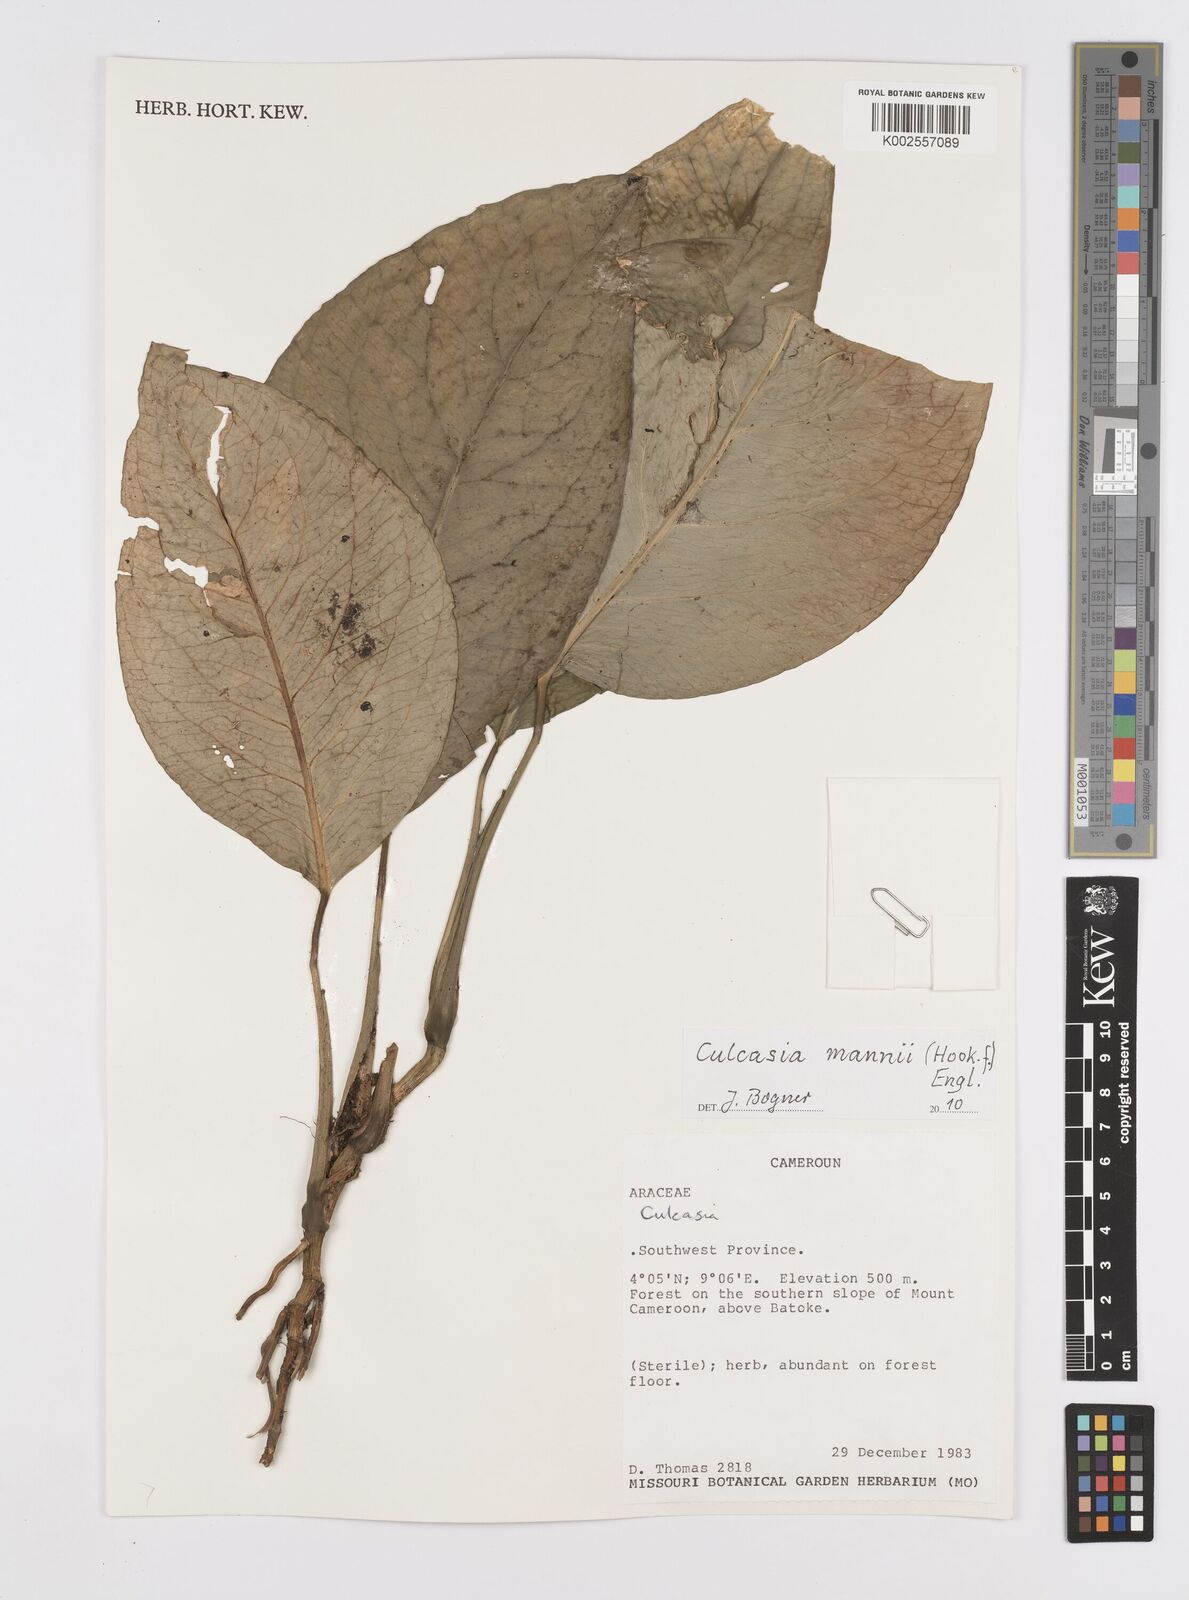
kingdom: Plantae
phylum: Tracheophyta
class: Liliopsida
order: Alismatales
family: Araceae
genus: Culcasia
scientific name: Culcasia mannii
